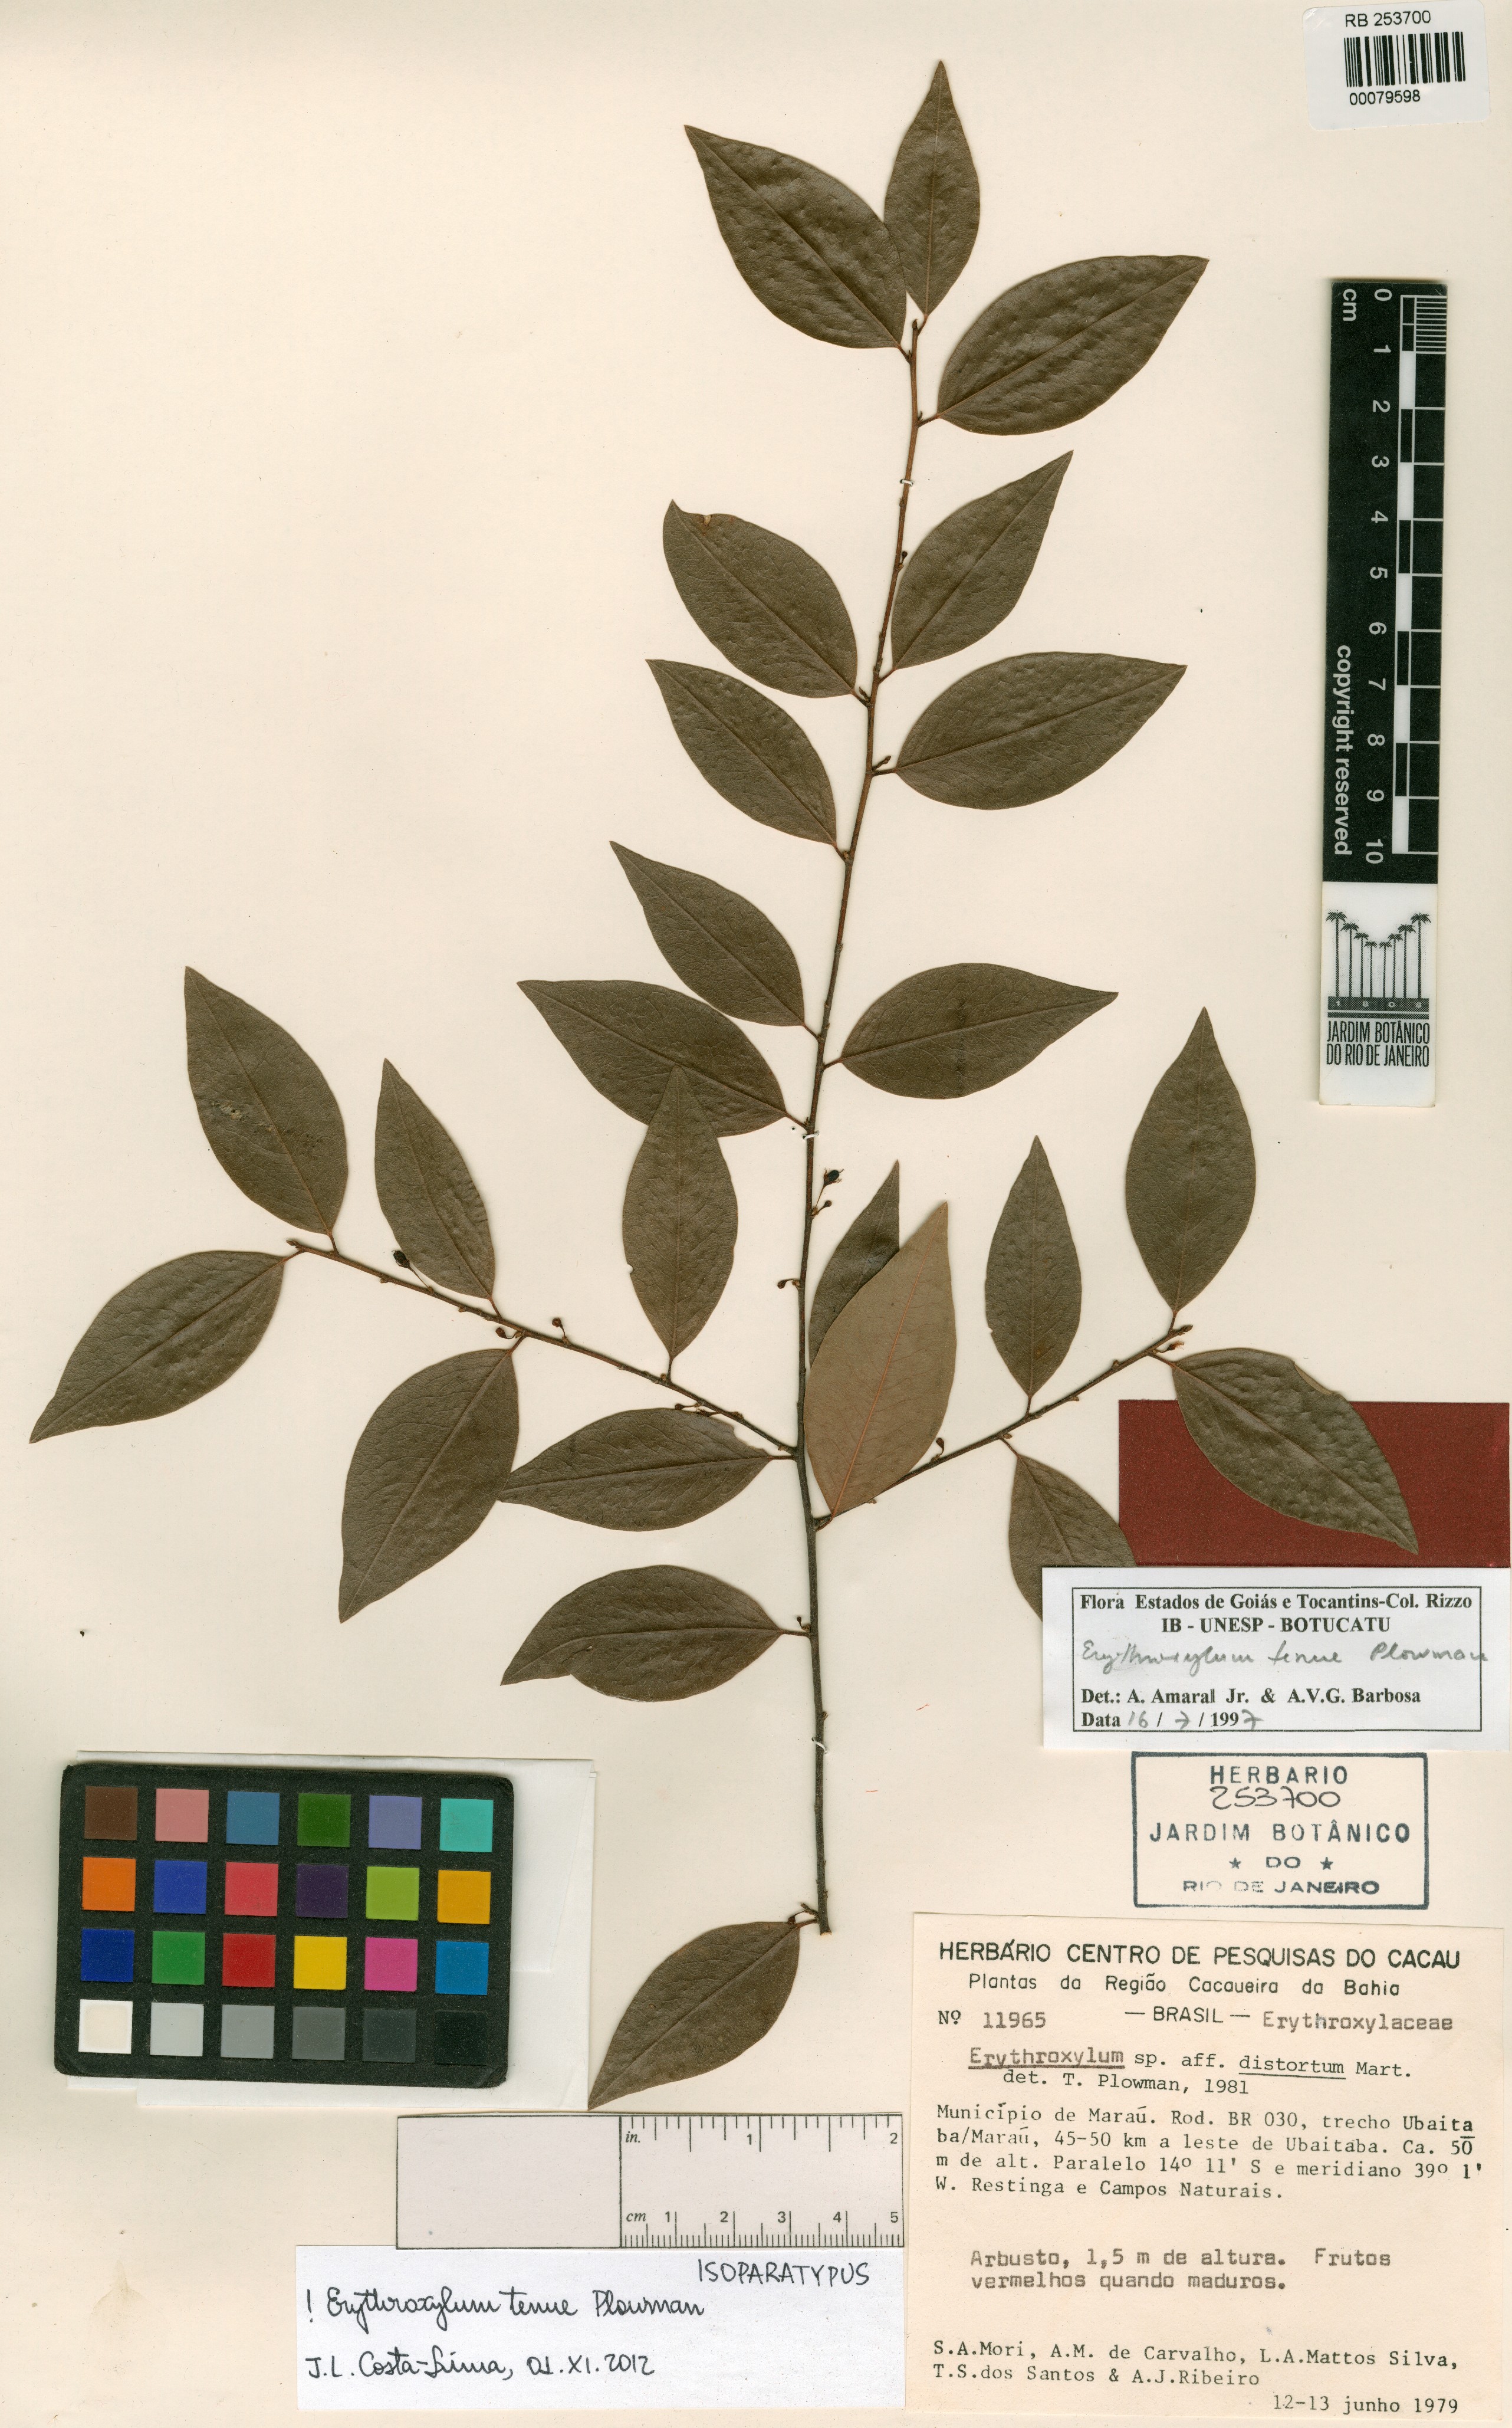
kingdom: Plantae
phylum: Tracheophyta
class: Magnoliopsida
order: Malpighiales
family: Erythroxylaceae
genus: Erythroxylum
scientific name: Erythroxylum tenue
